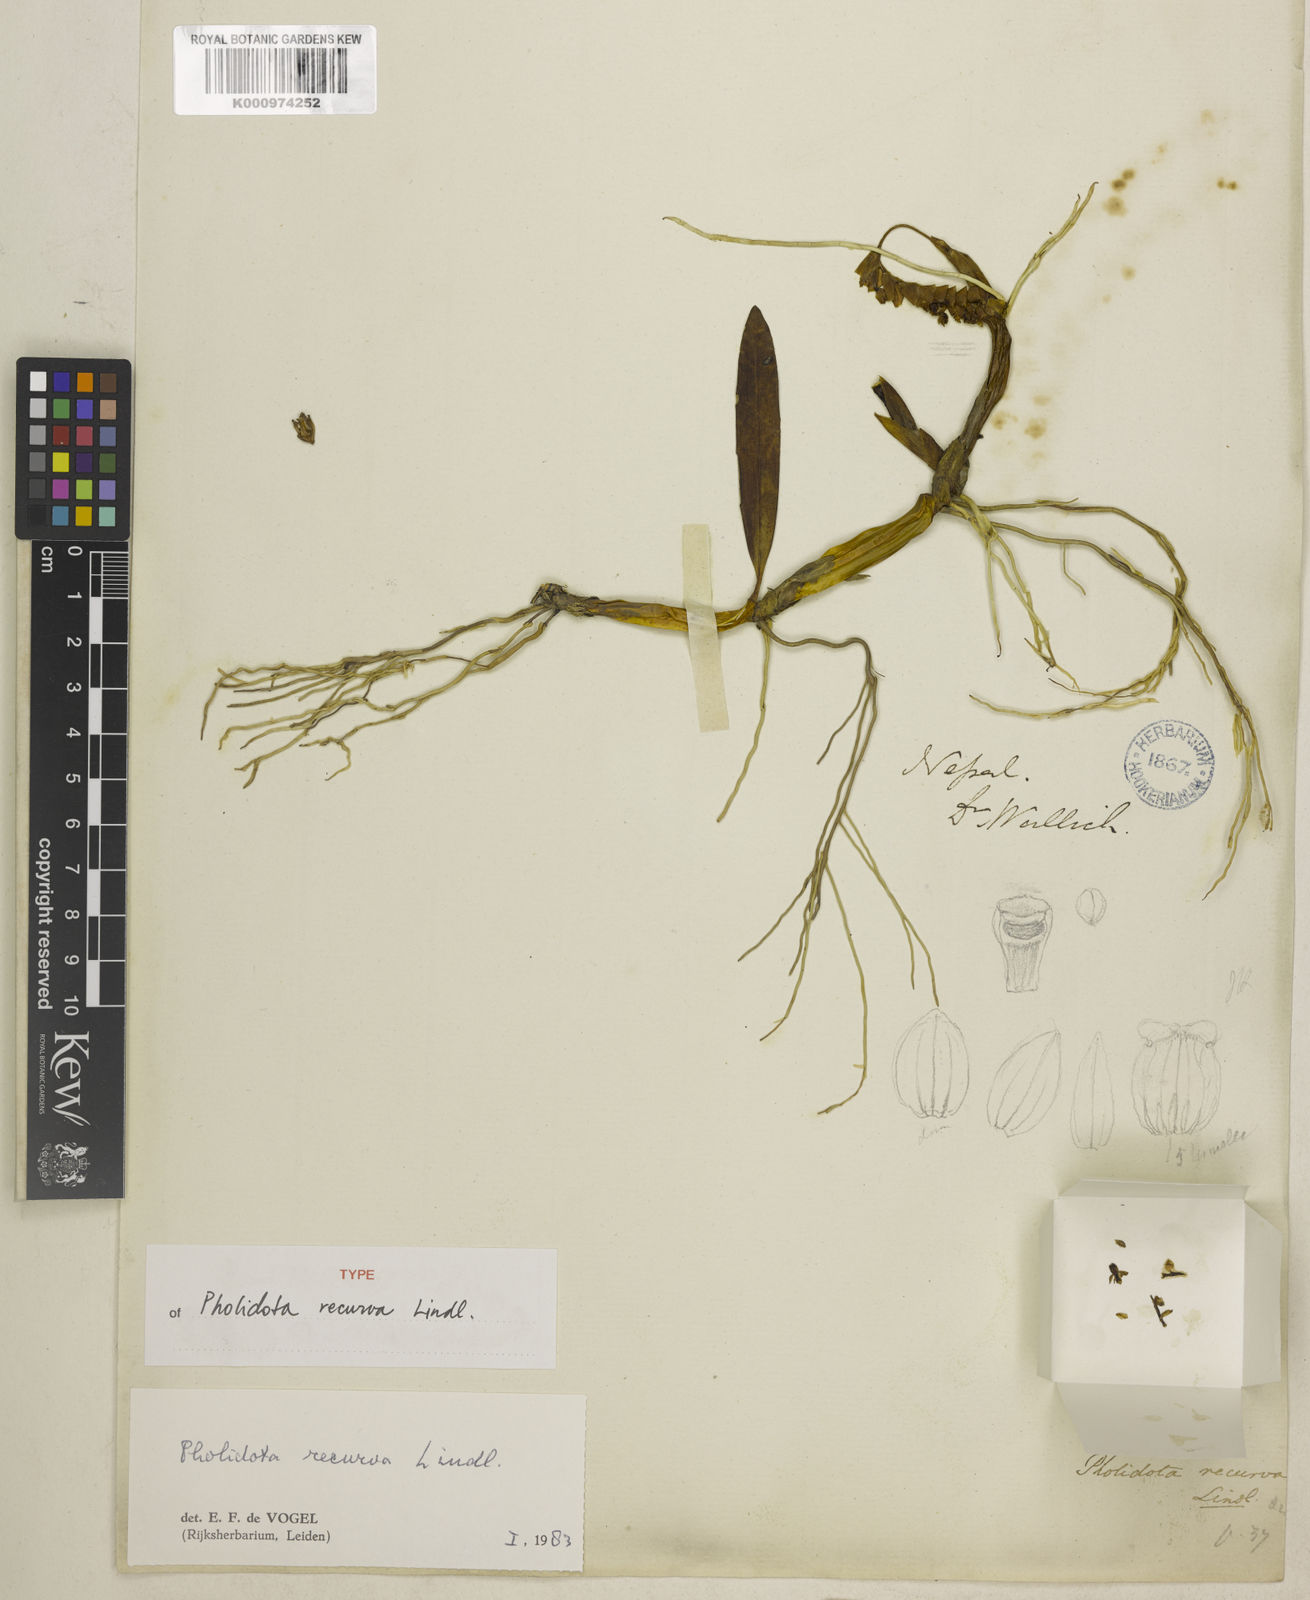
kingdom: Plantae
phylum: Tracheophyta
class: Liliopsida
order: Asparagales
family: Orchidaceae
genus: Coelogyne
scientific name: Coelogyne recurva
